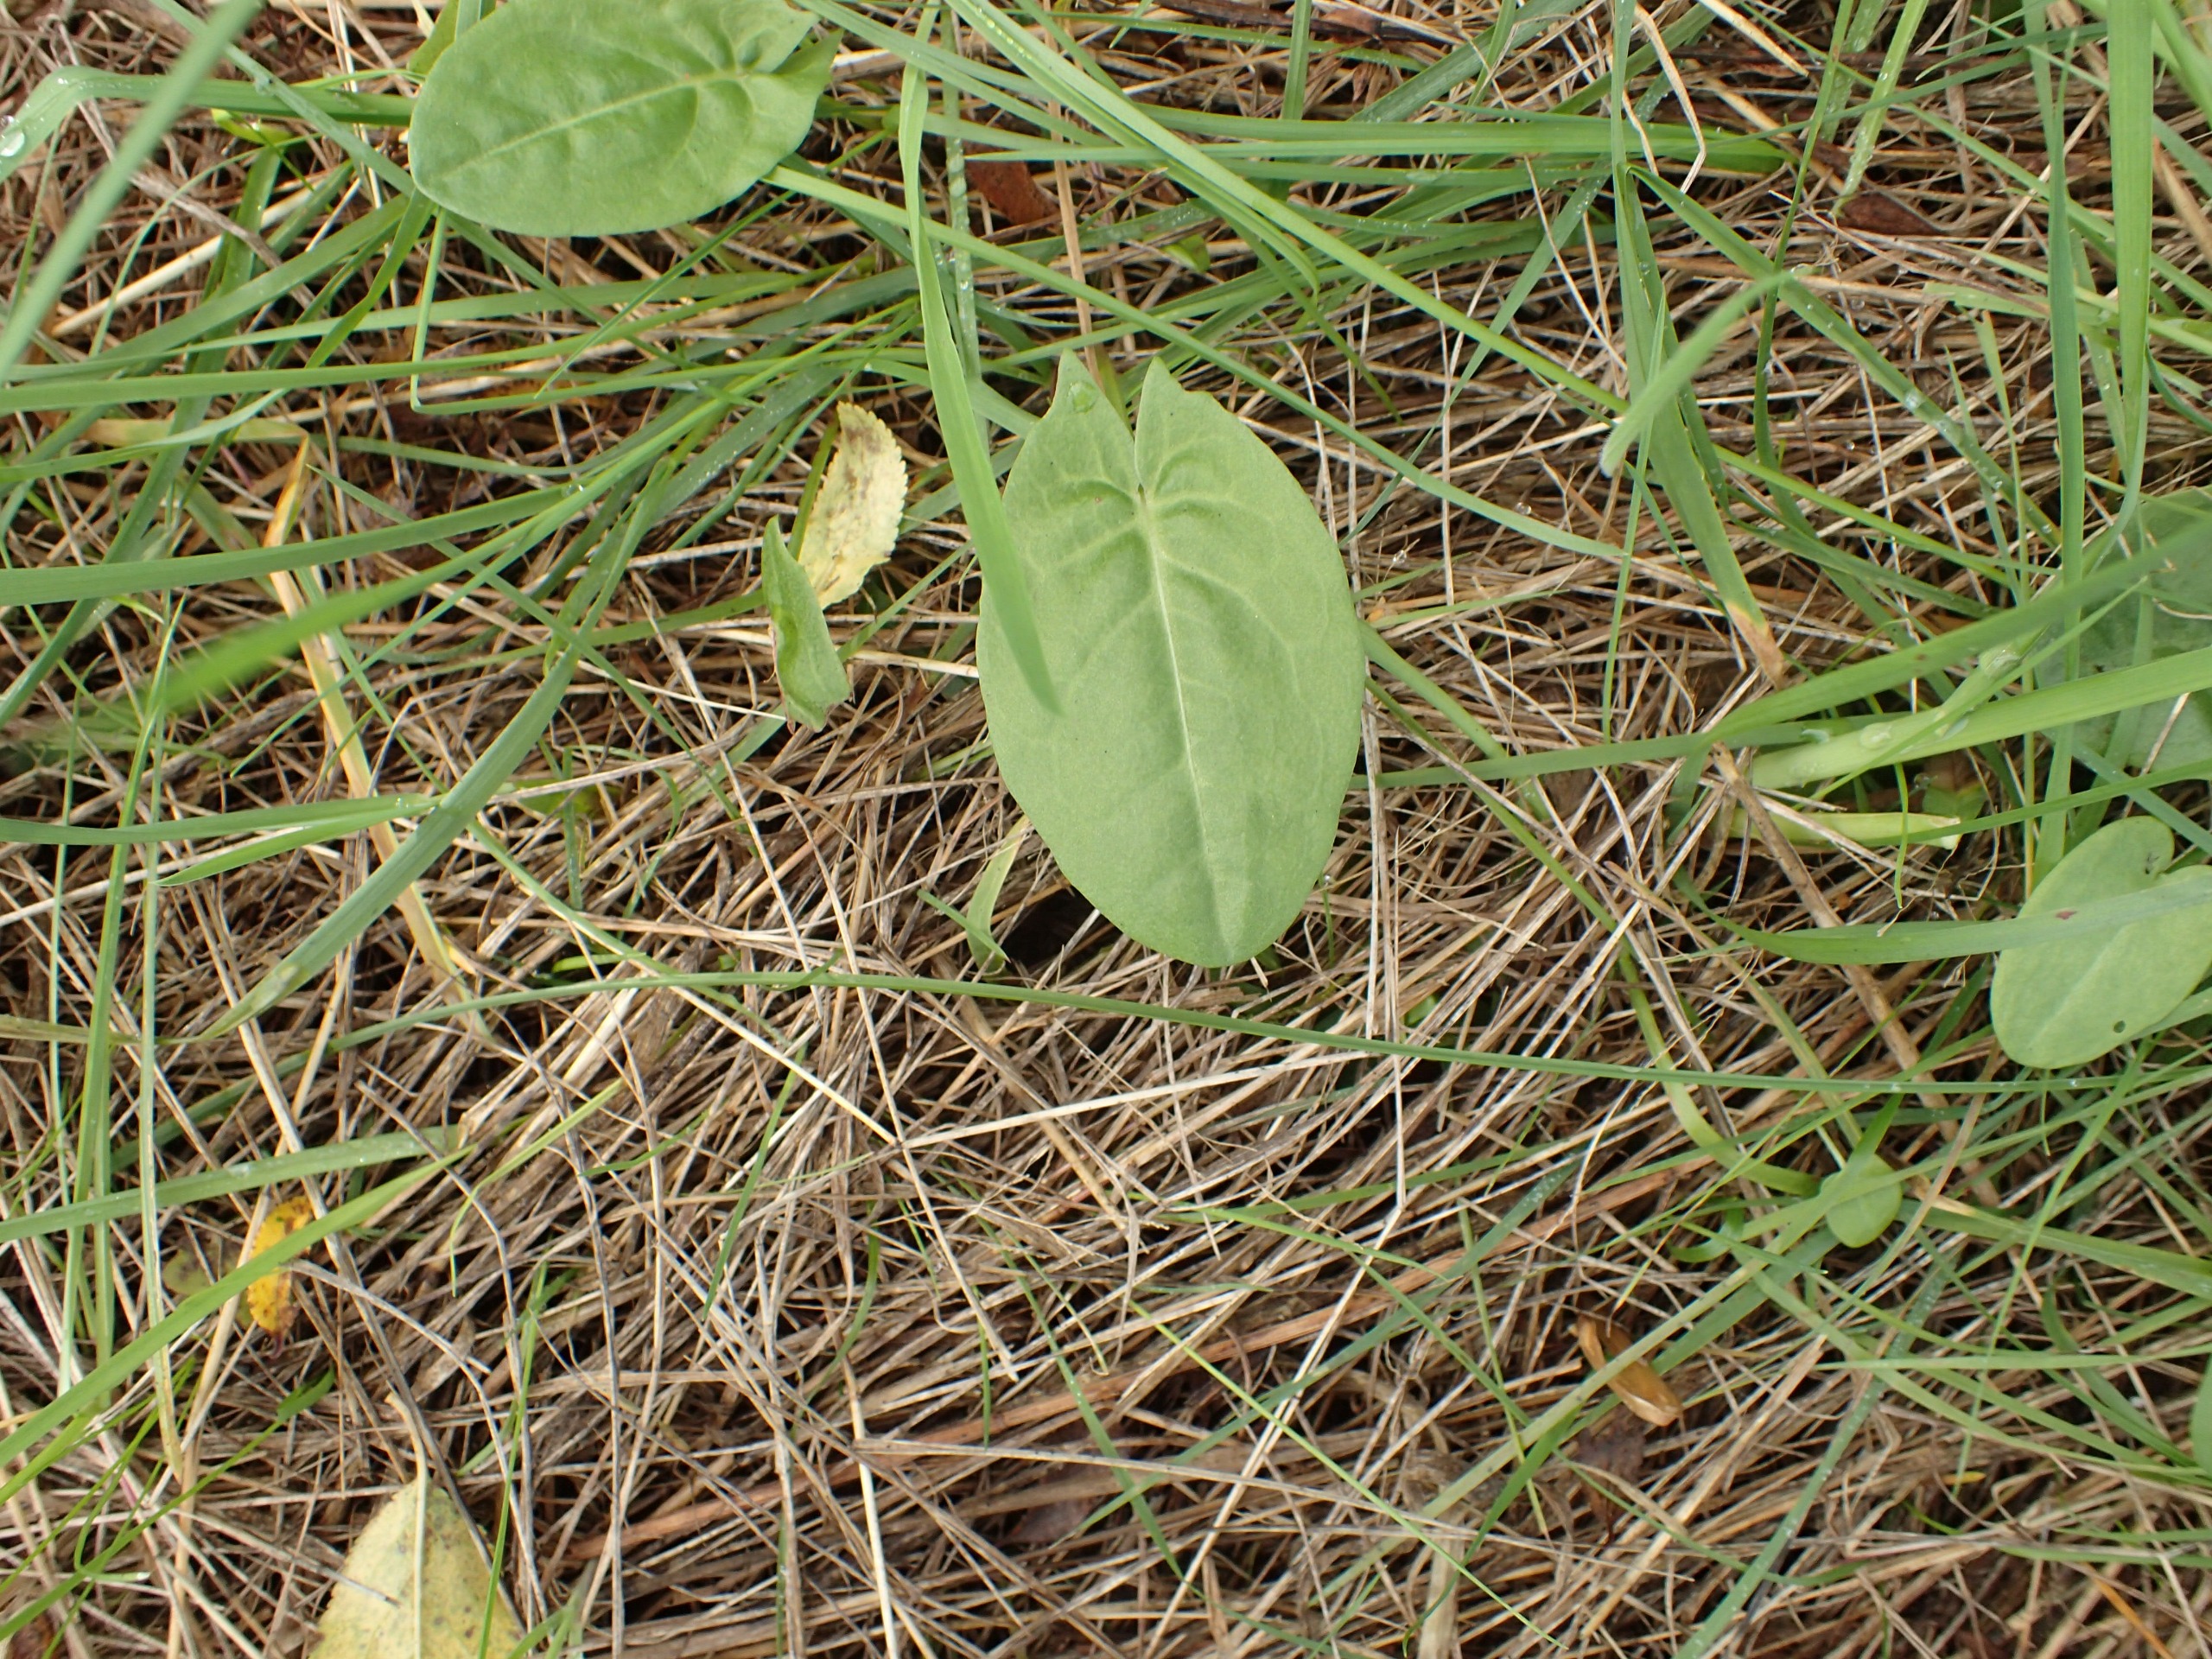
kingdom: Plantae
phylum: Tracheophyta
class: Magnoliopsida
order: Caryophyllales
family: Polygonaceae
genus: Rumex
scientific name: Rumex acetosa
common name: Almindelig syre
